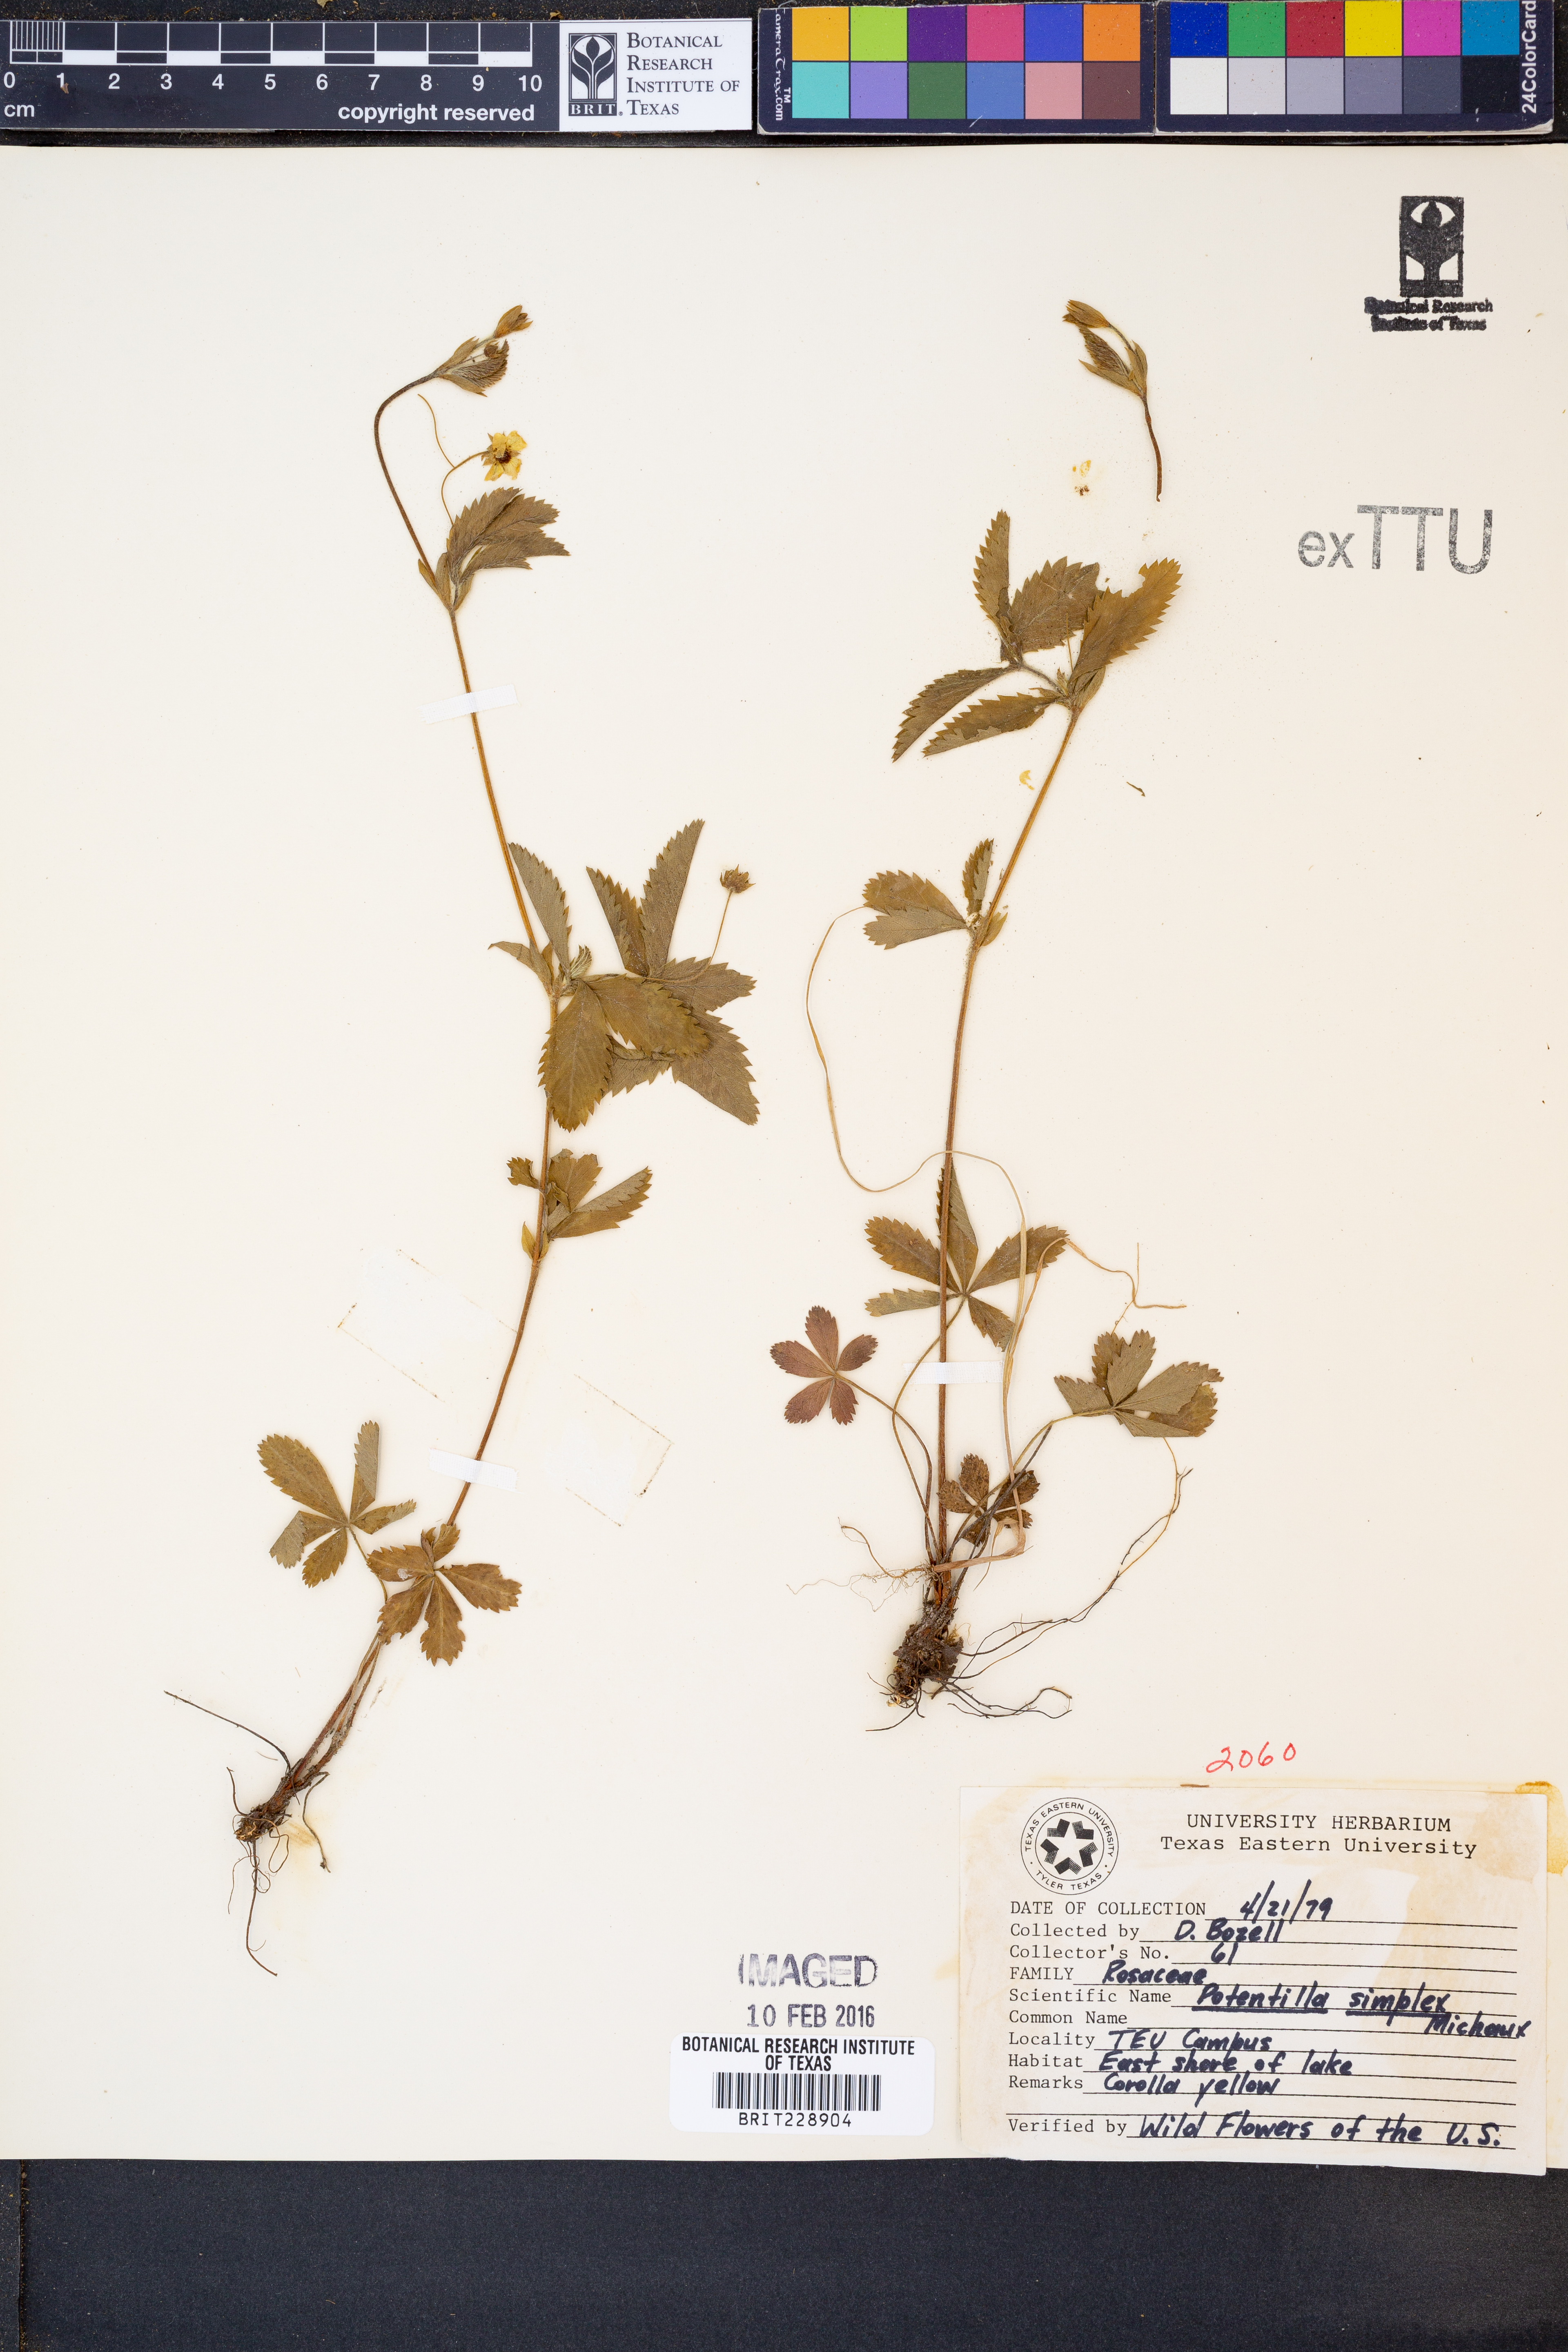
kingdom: Plantae
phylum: Tracheophyta
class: Magnoliopsida
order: Rosales
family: Rosaceae
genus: Potentilla
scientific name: Potentilla simplex
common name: Old field cinquefoil
